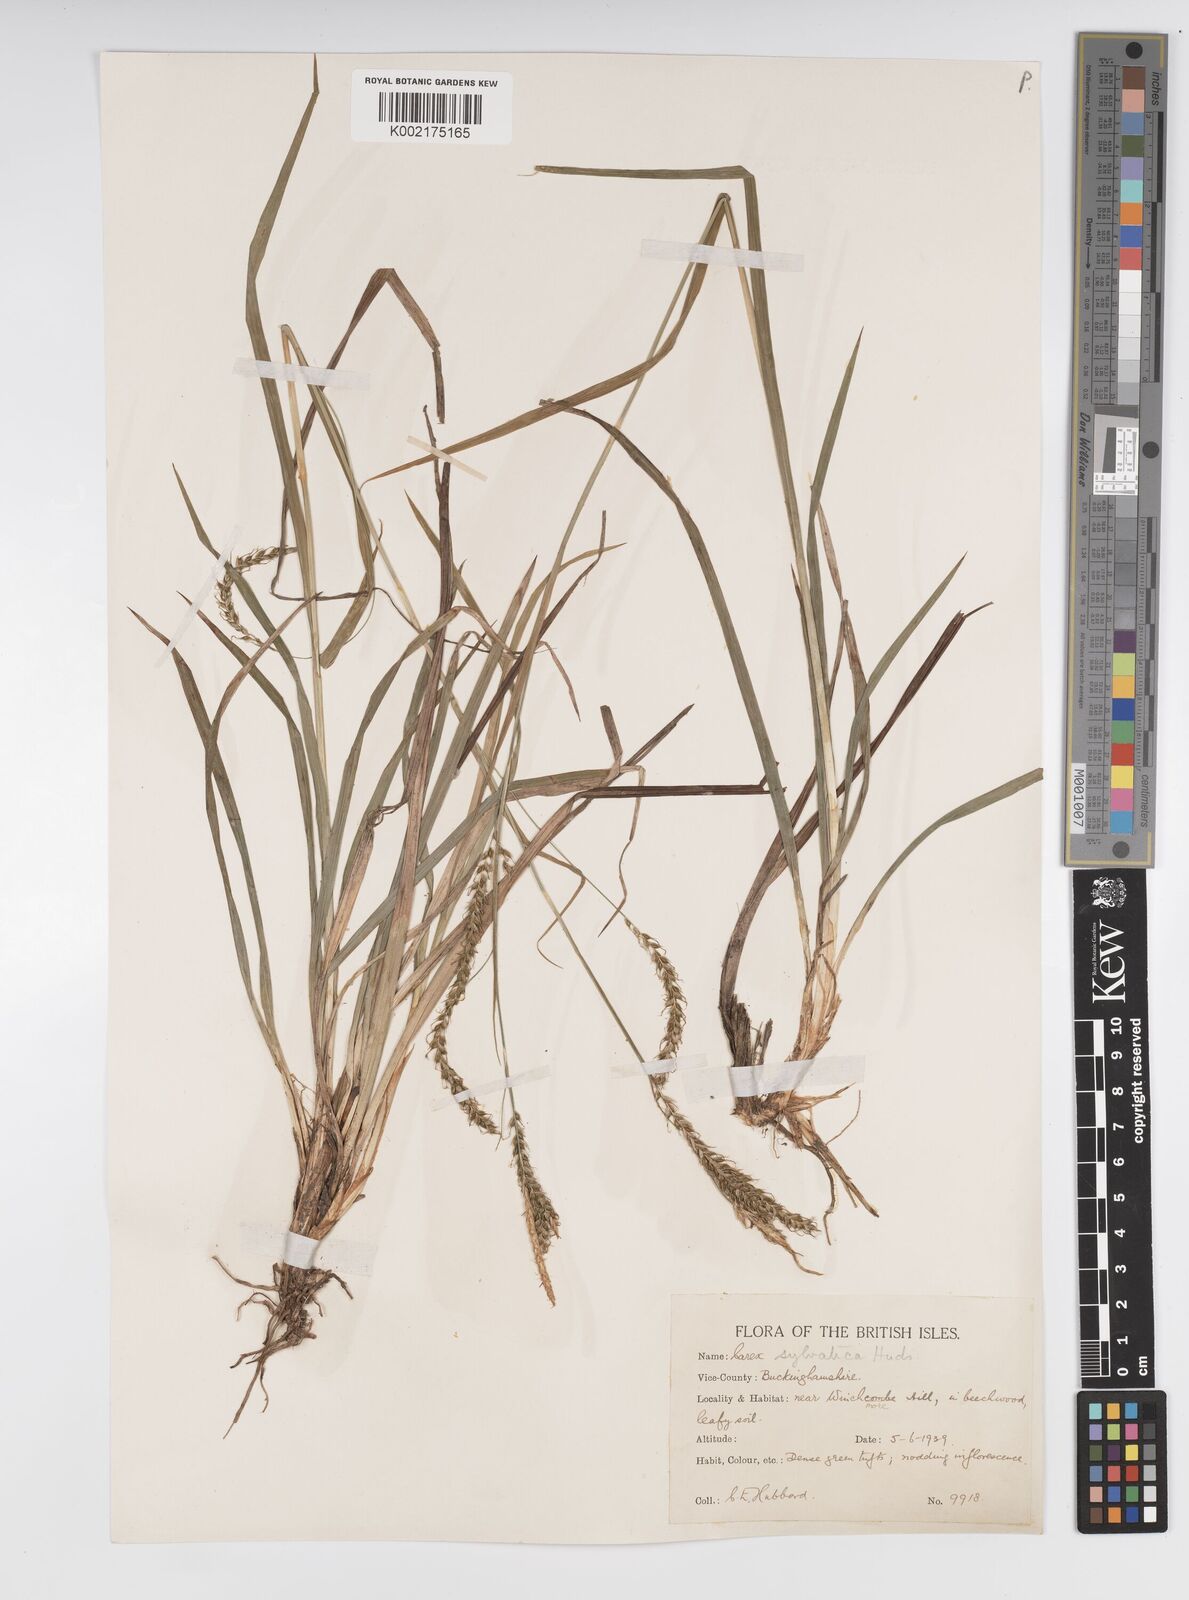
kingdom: Plantae
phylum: Tracheophyta
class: Liliopsida
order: Poales
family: Cyperaceae
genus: Carex
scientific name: Carex sylvatica
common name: Wood-sedge
